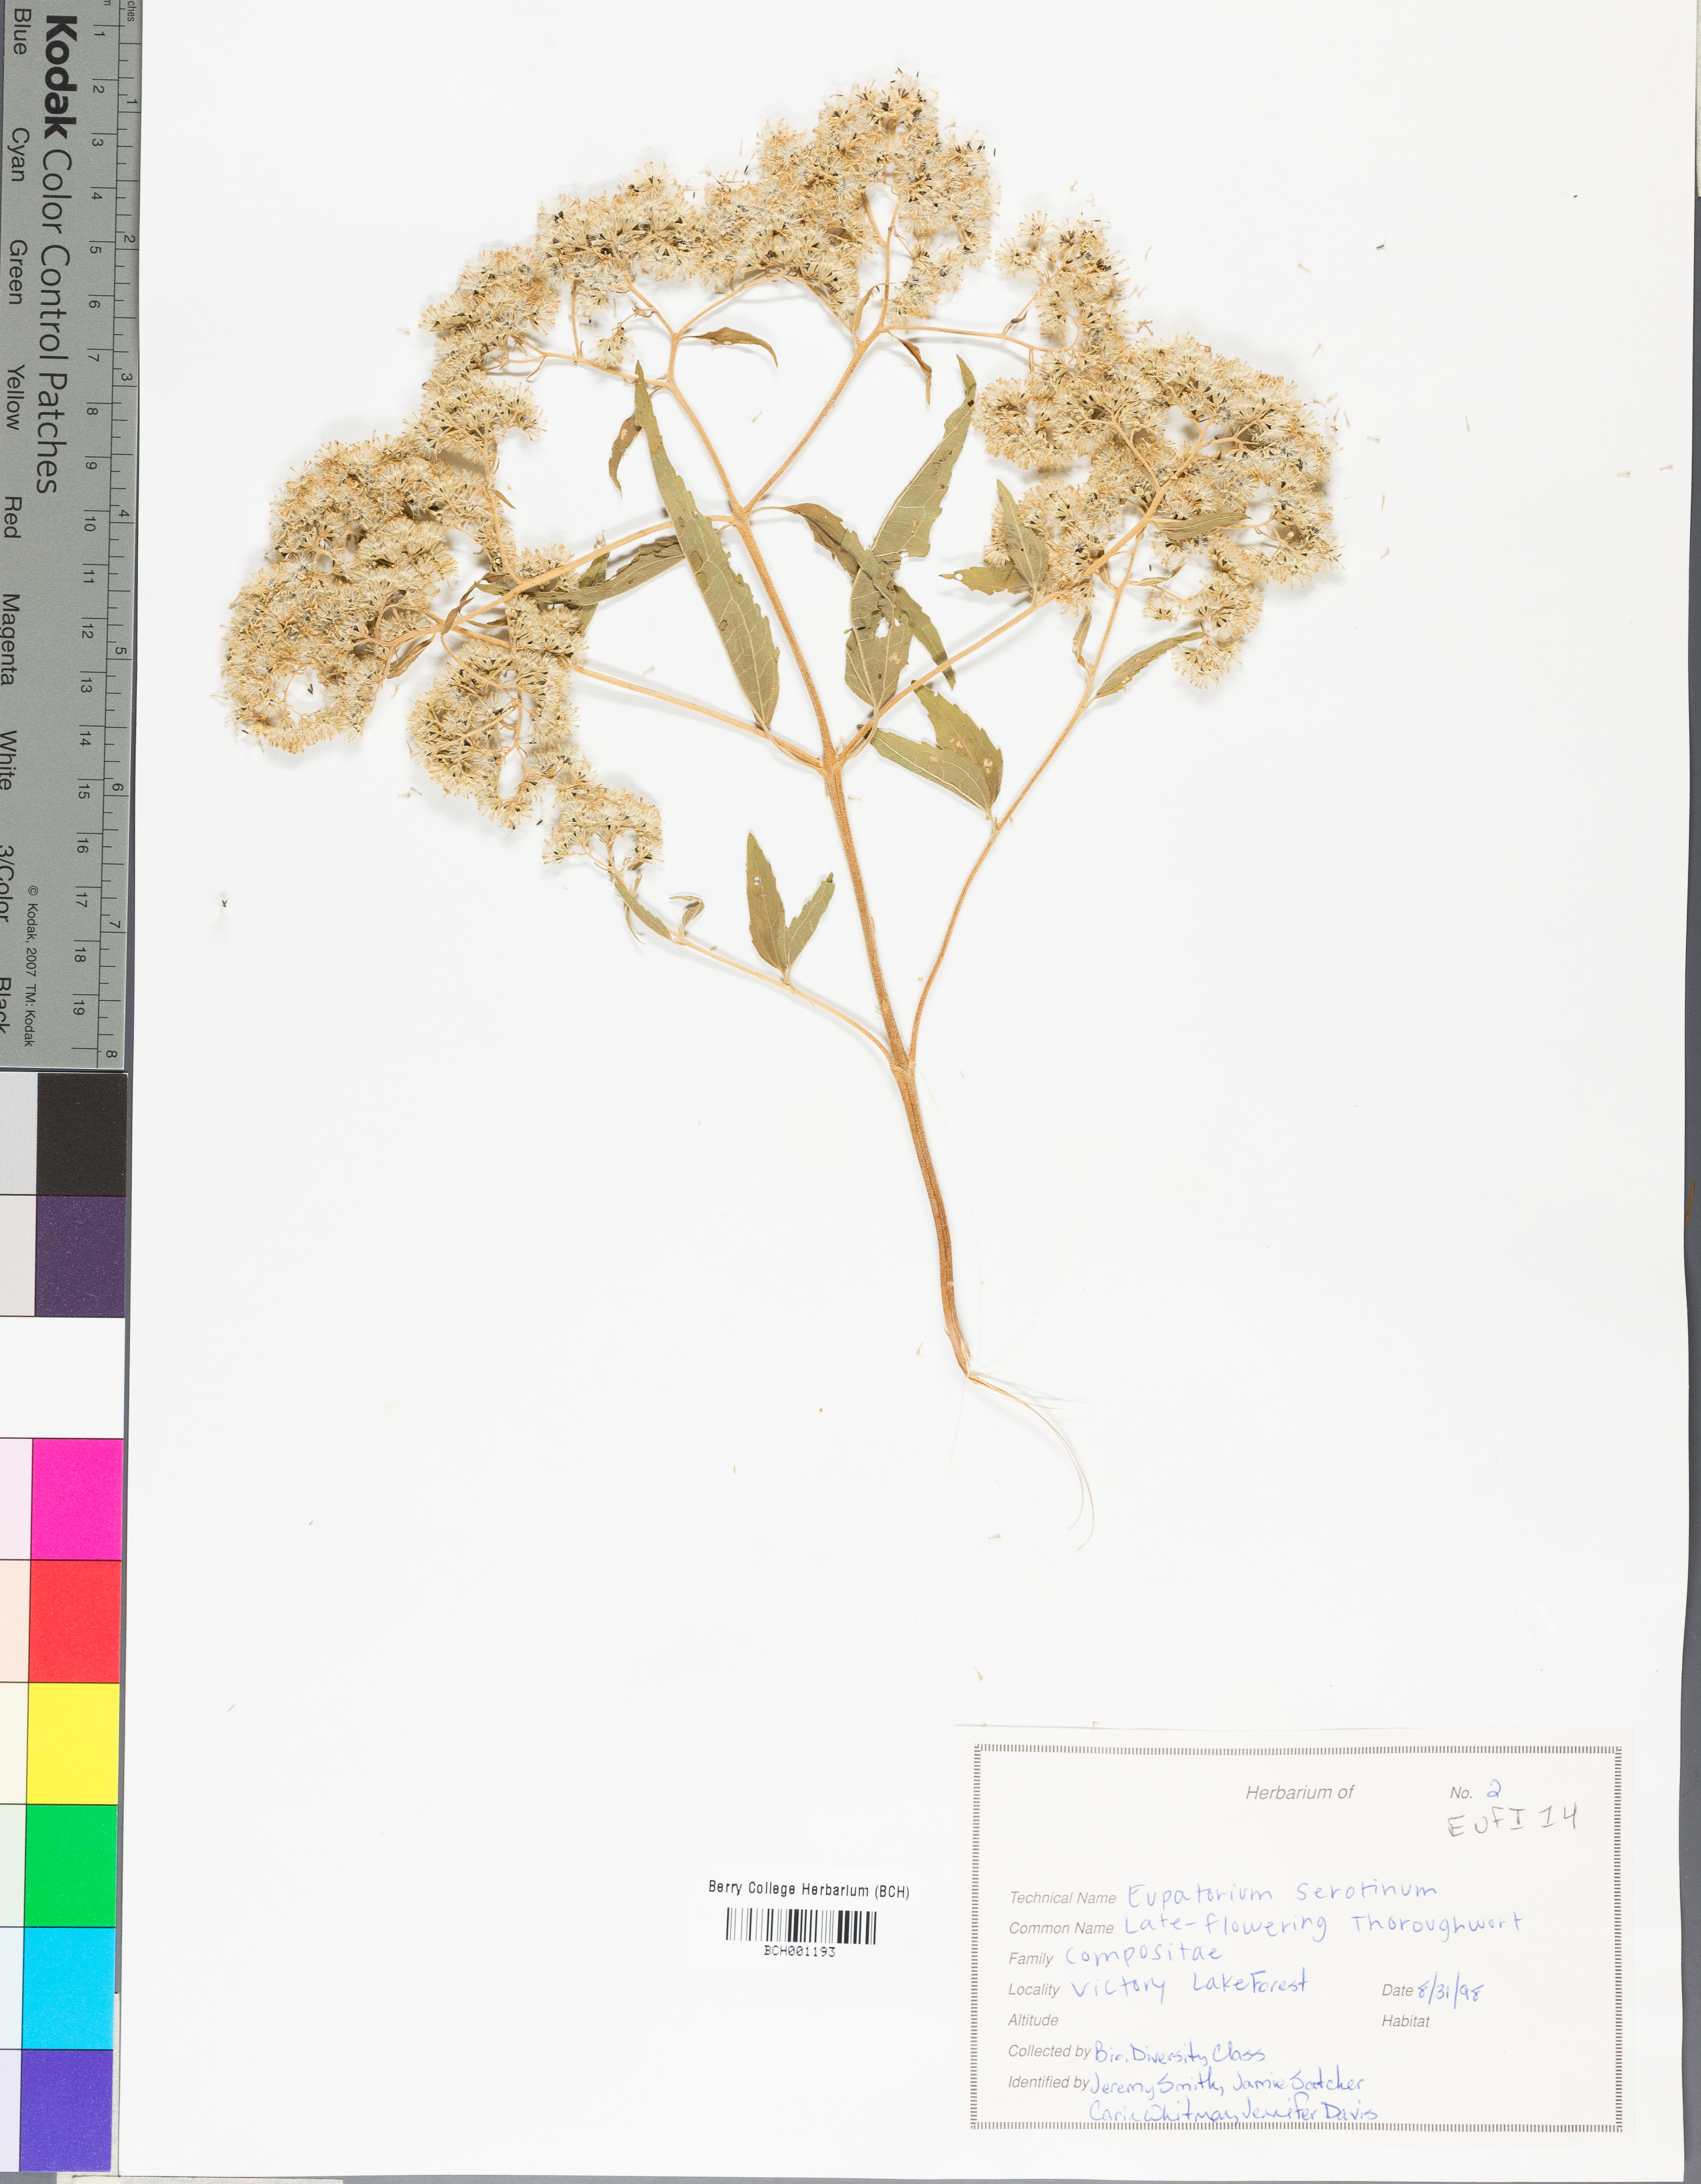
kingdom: Plantae
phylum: Tracheophyta
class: Magnoliopsida
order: Asterales
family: Asteraceae
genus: Eutrochium
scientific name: Eutrochium
